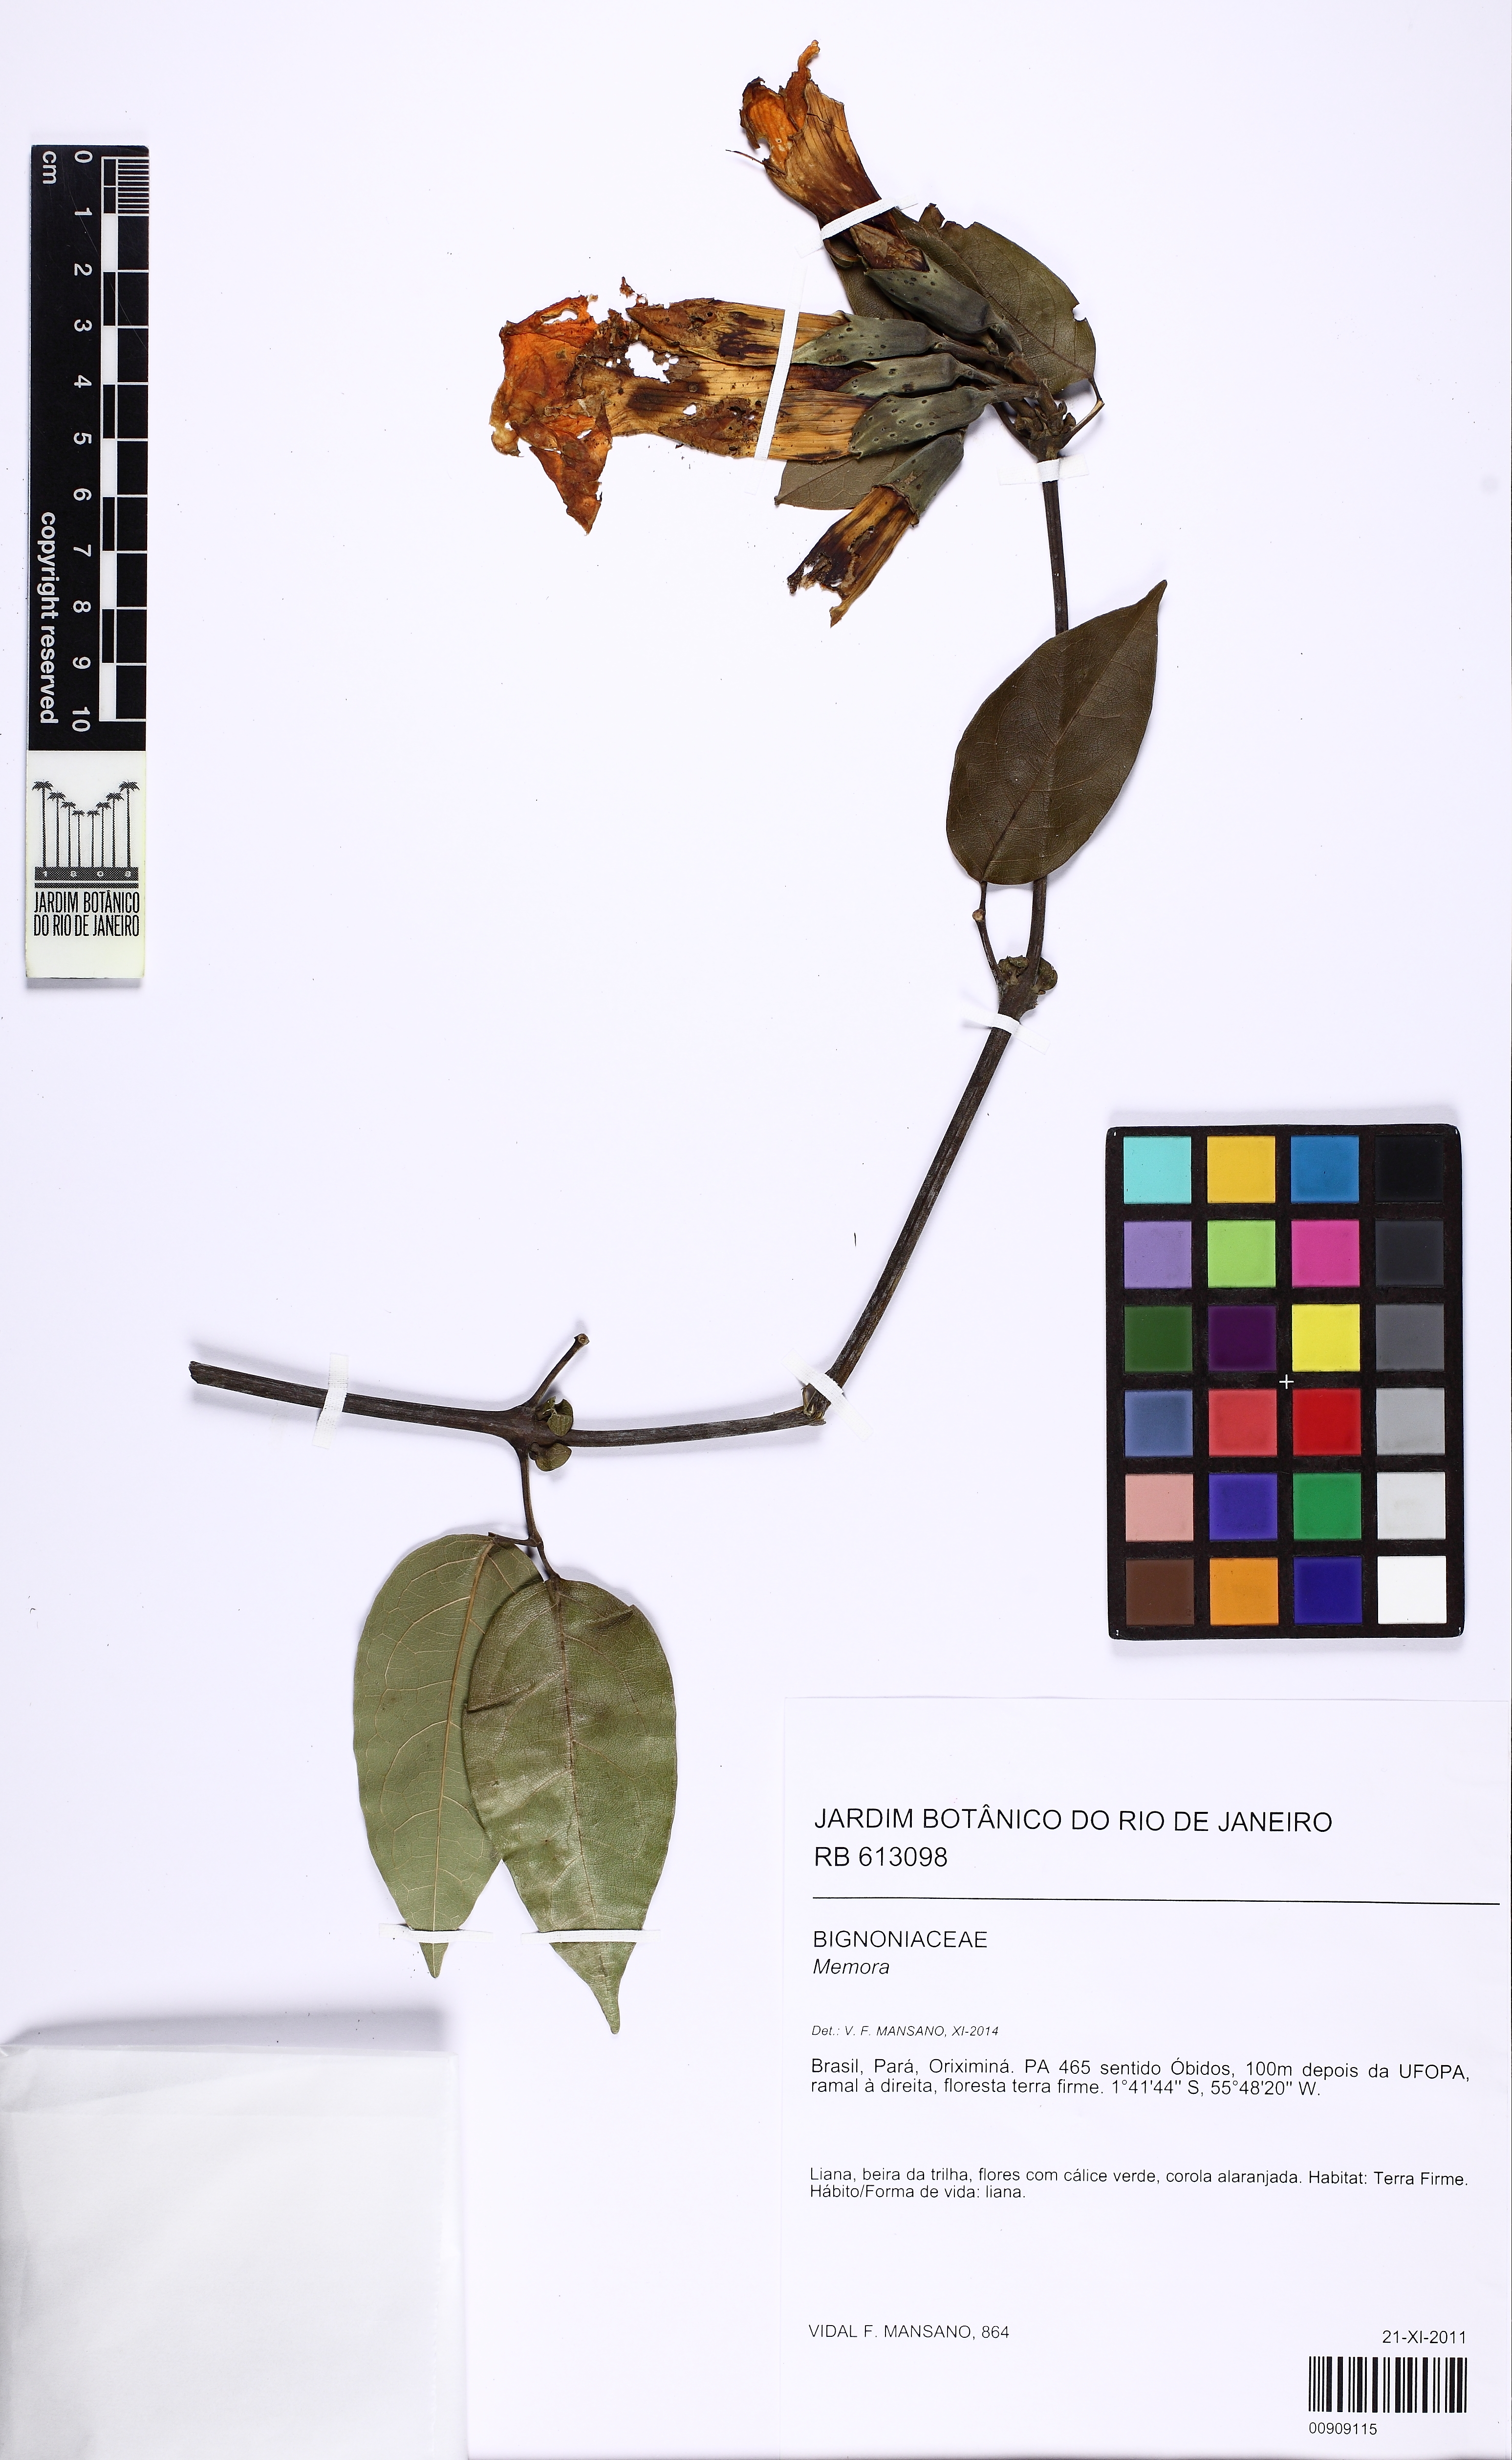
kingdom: Plantae
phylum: Tracheophyta
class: Magnoliopsida
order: Lamiales
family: Bignoniaceae
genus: Adenocalymma
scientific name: Adenocalymma
